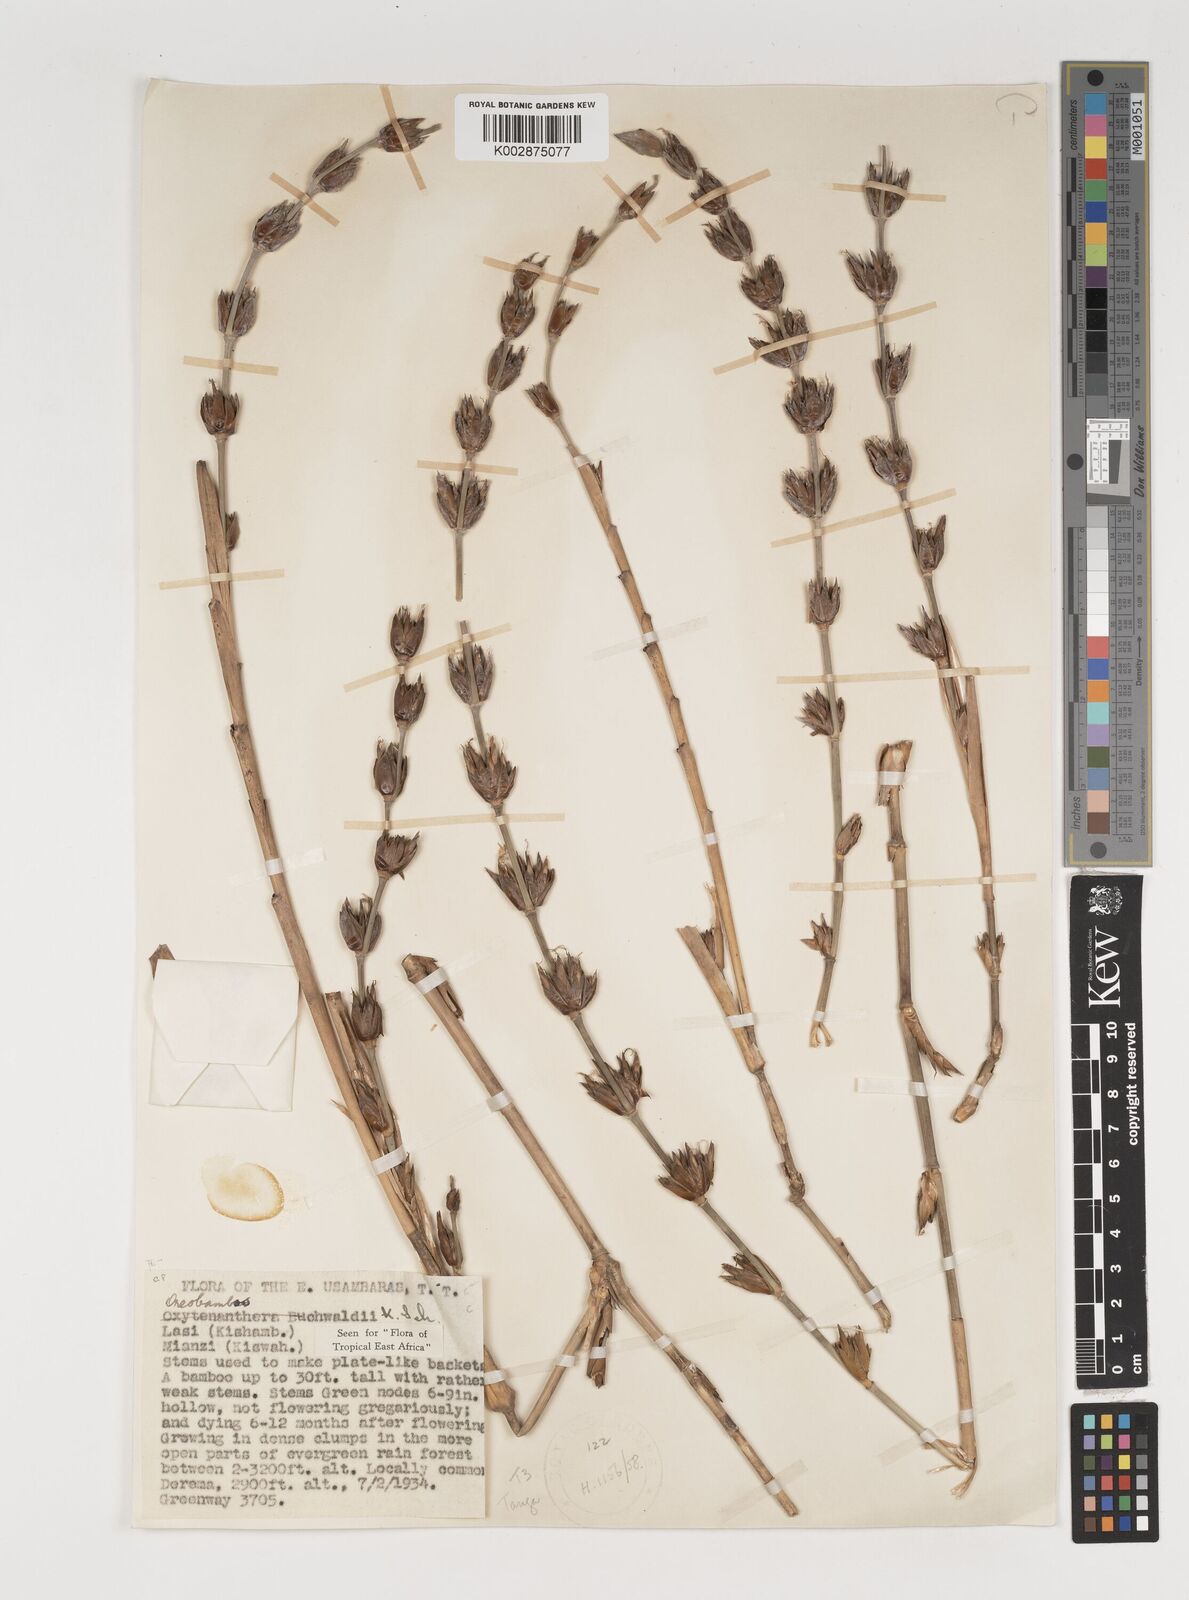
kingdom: Plantae
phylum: Tracheophyta
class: Liliopsida
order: Poales
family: Poaceae
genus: Oreobambos
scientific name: Oreobambos buchwaldii
